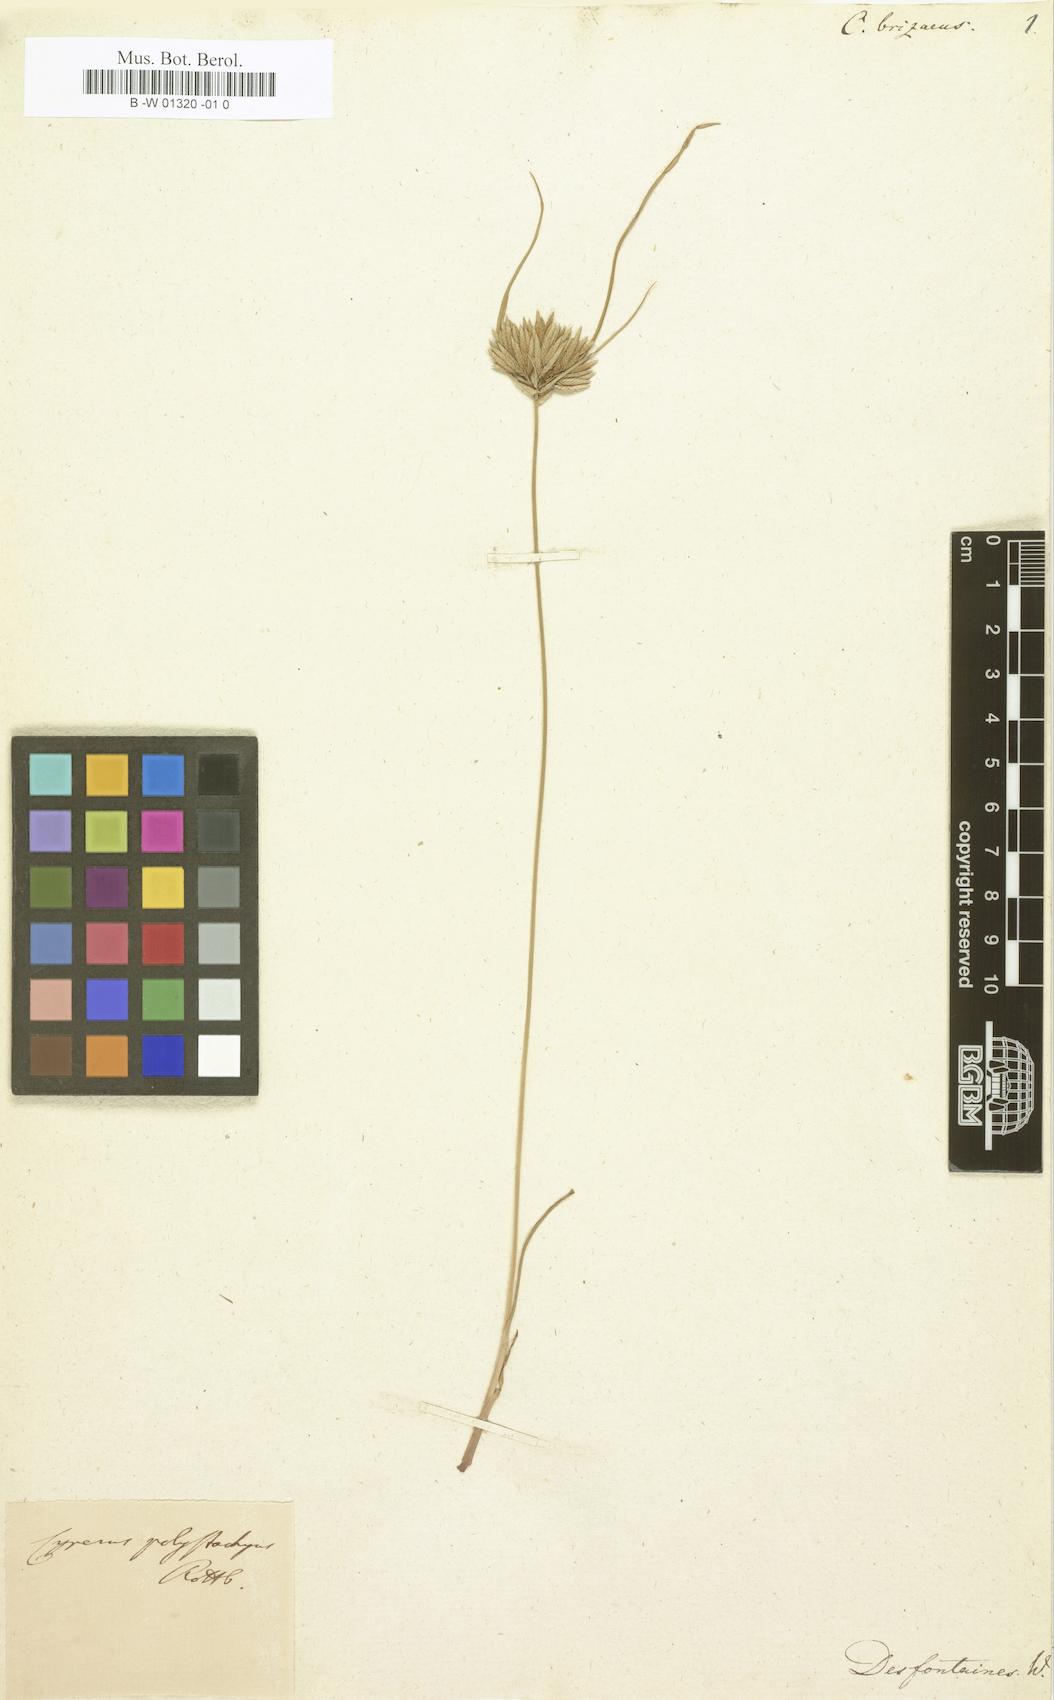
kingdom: Plantae
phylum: Tracheophyta
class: Liliopsida
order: Poales
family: Cyperaceae
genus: Cyperus
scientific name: Cyperus planifolius
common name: Bullgrass
